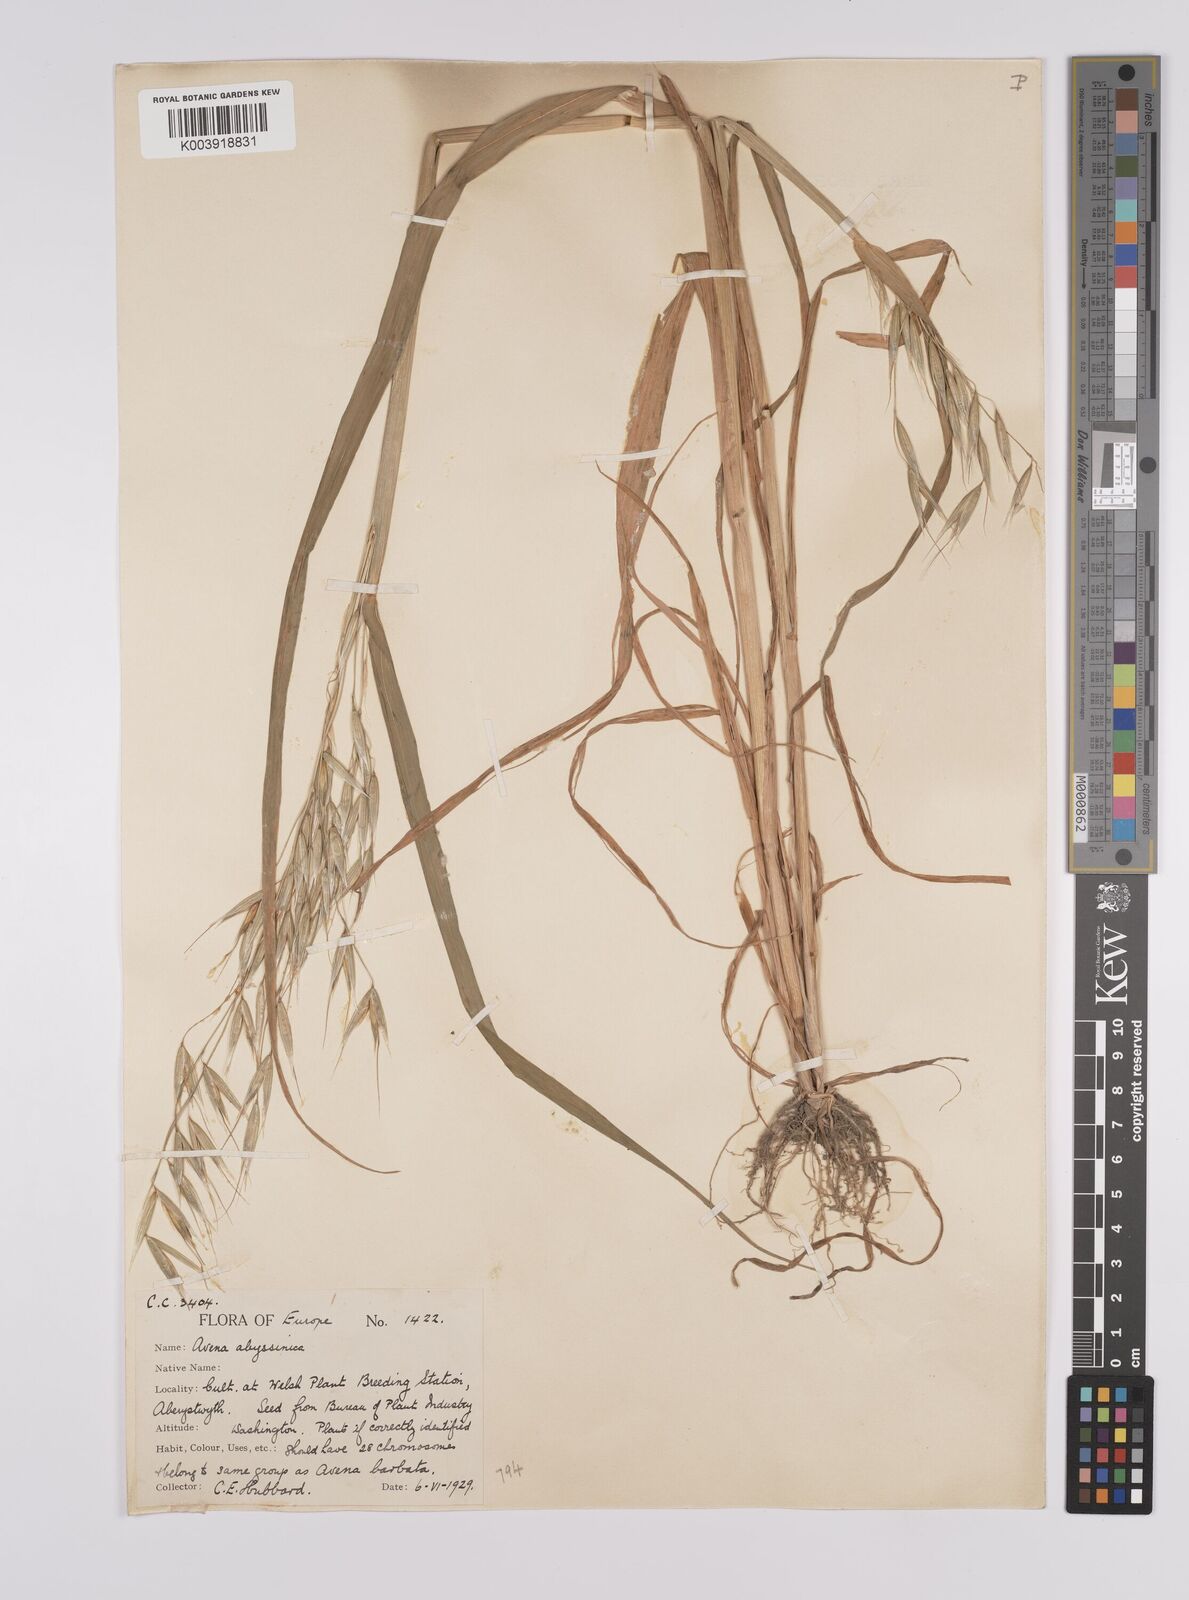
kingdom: Plantae
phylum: Tracheophyta
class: Liliopsida
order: Poales
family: Poaceae
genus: Avena
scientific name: Avena abyssinica
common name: Ethiopian oat
